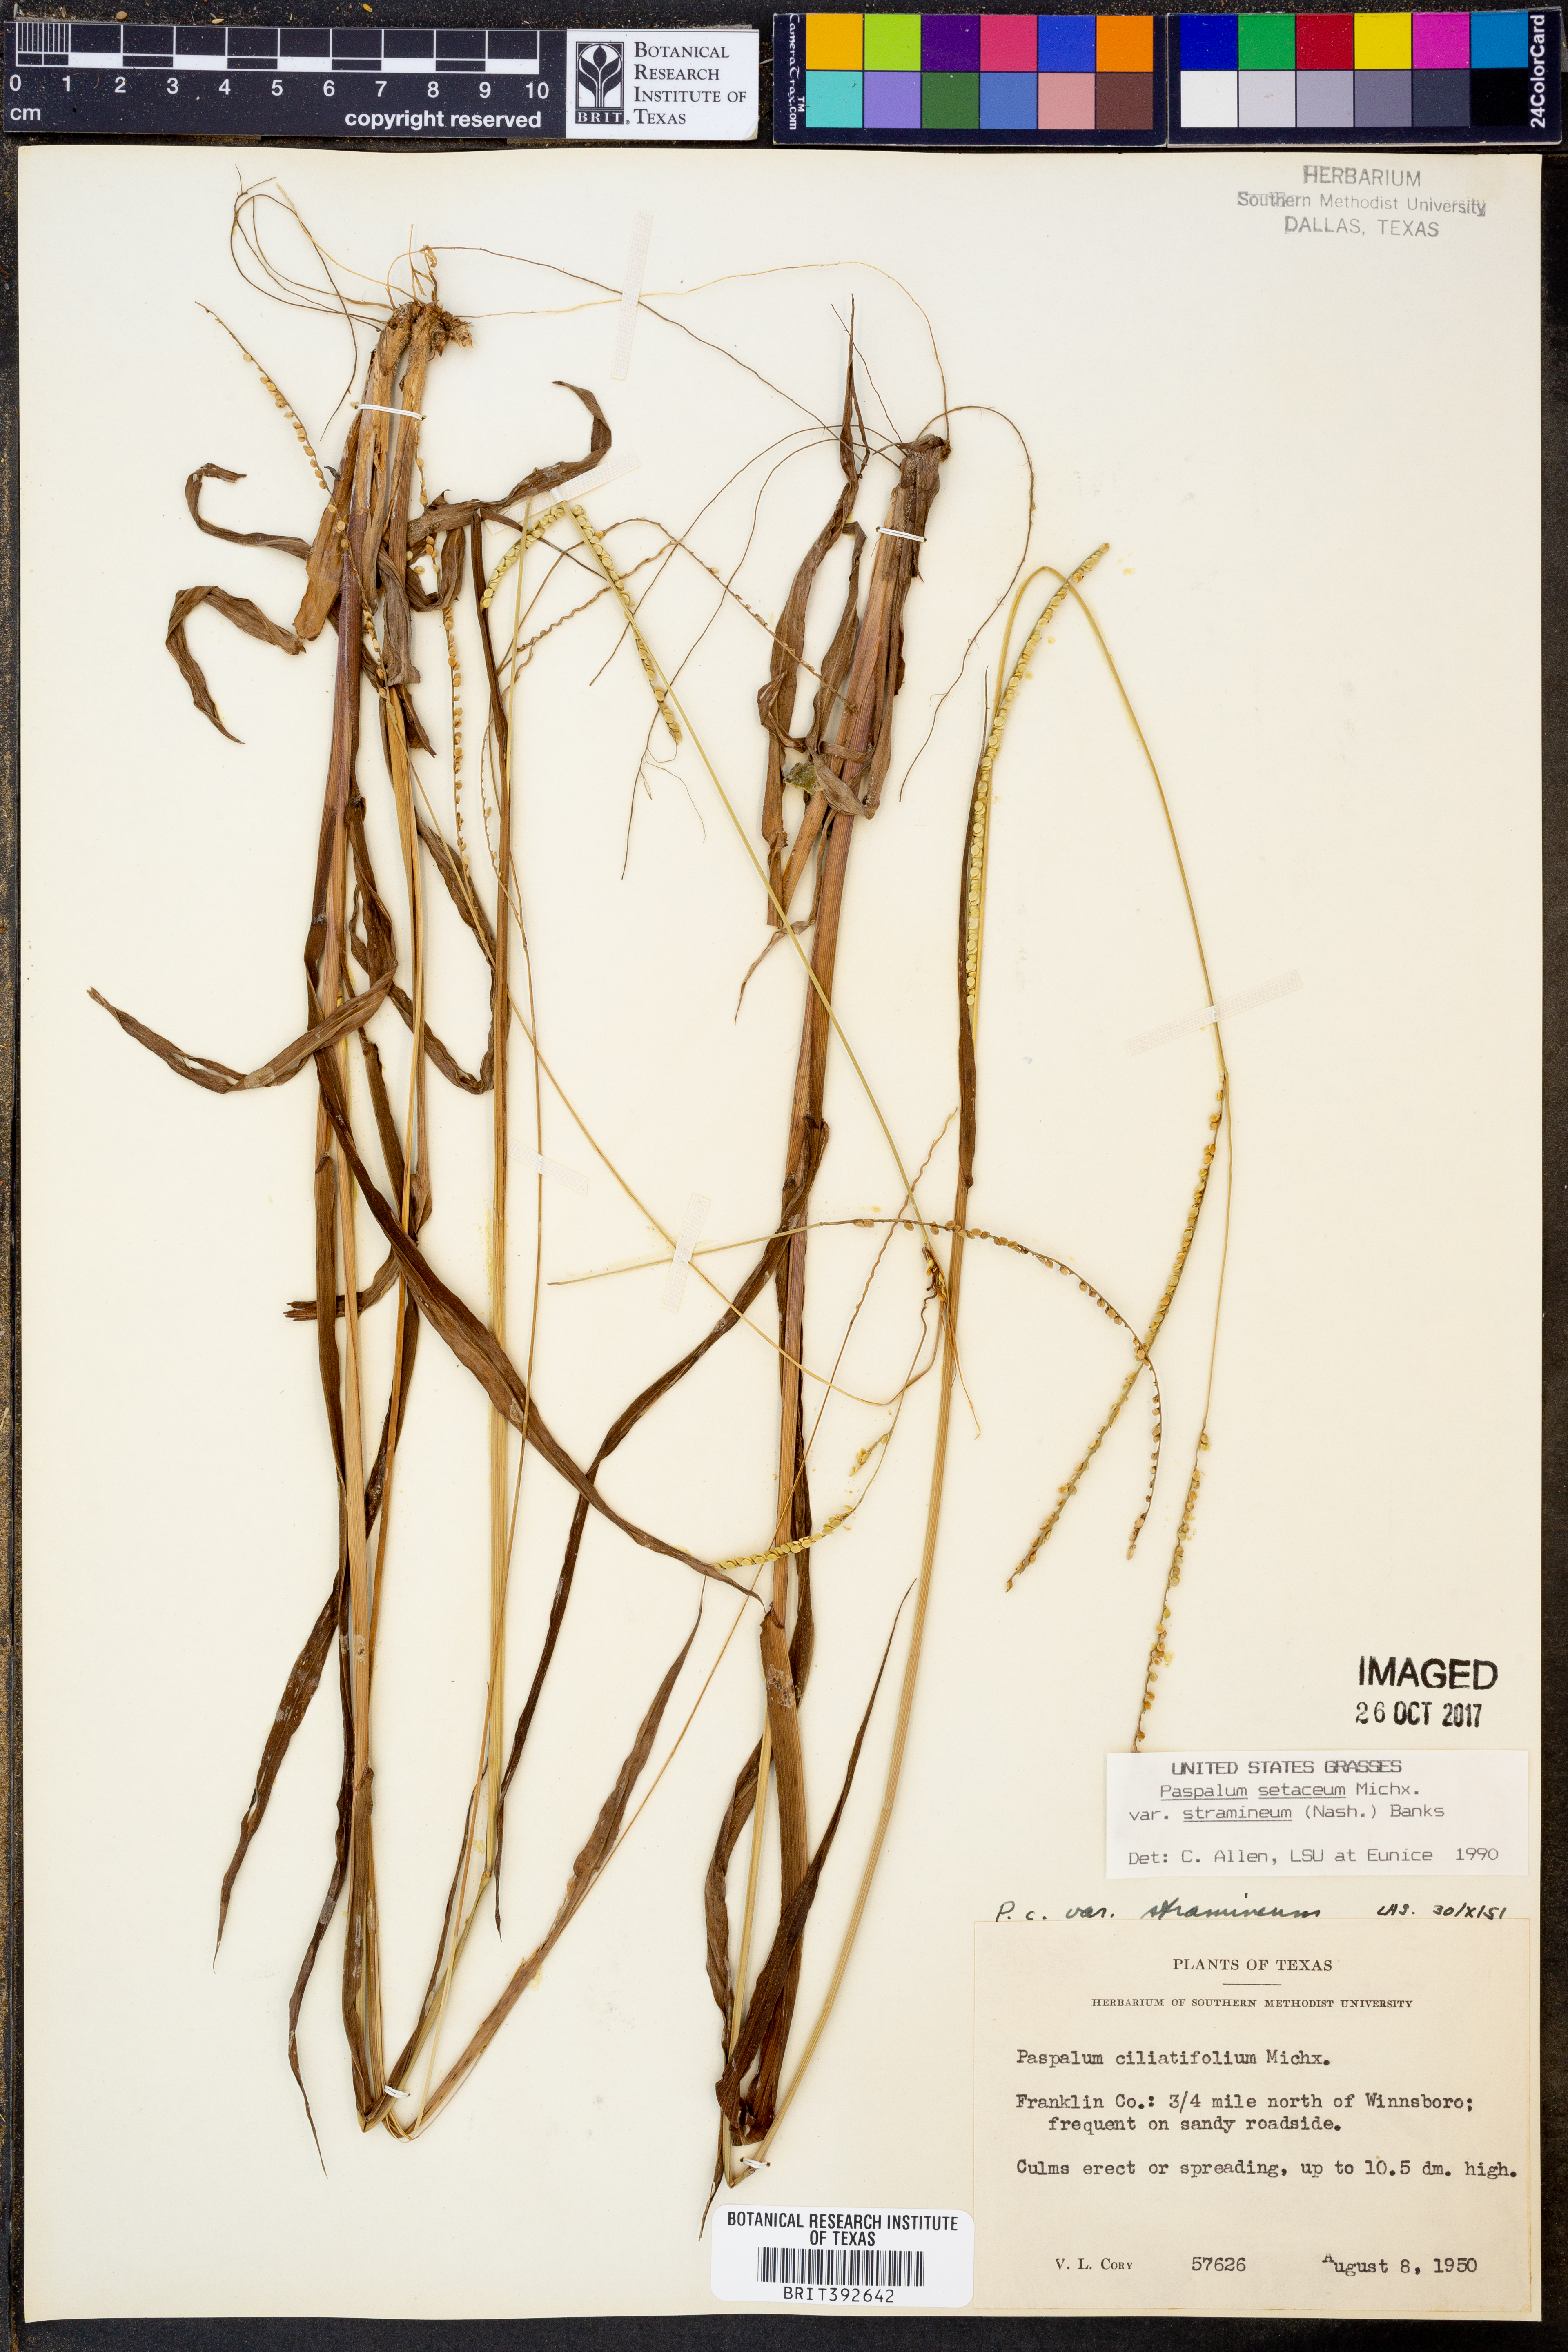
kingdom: Plantae
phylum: Tracheophyta
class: Liliopsida
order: Poales
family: Poaceae
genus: Paspalum
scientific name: Paspalum setaceum
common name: Slender paspalum
